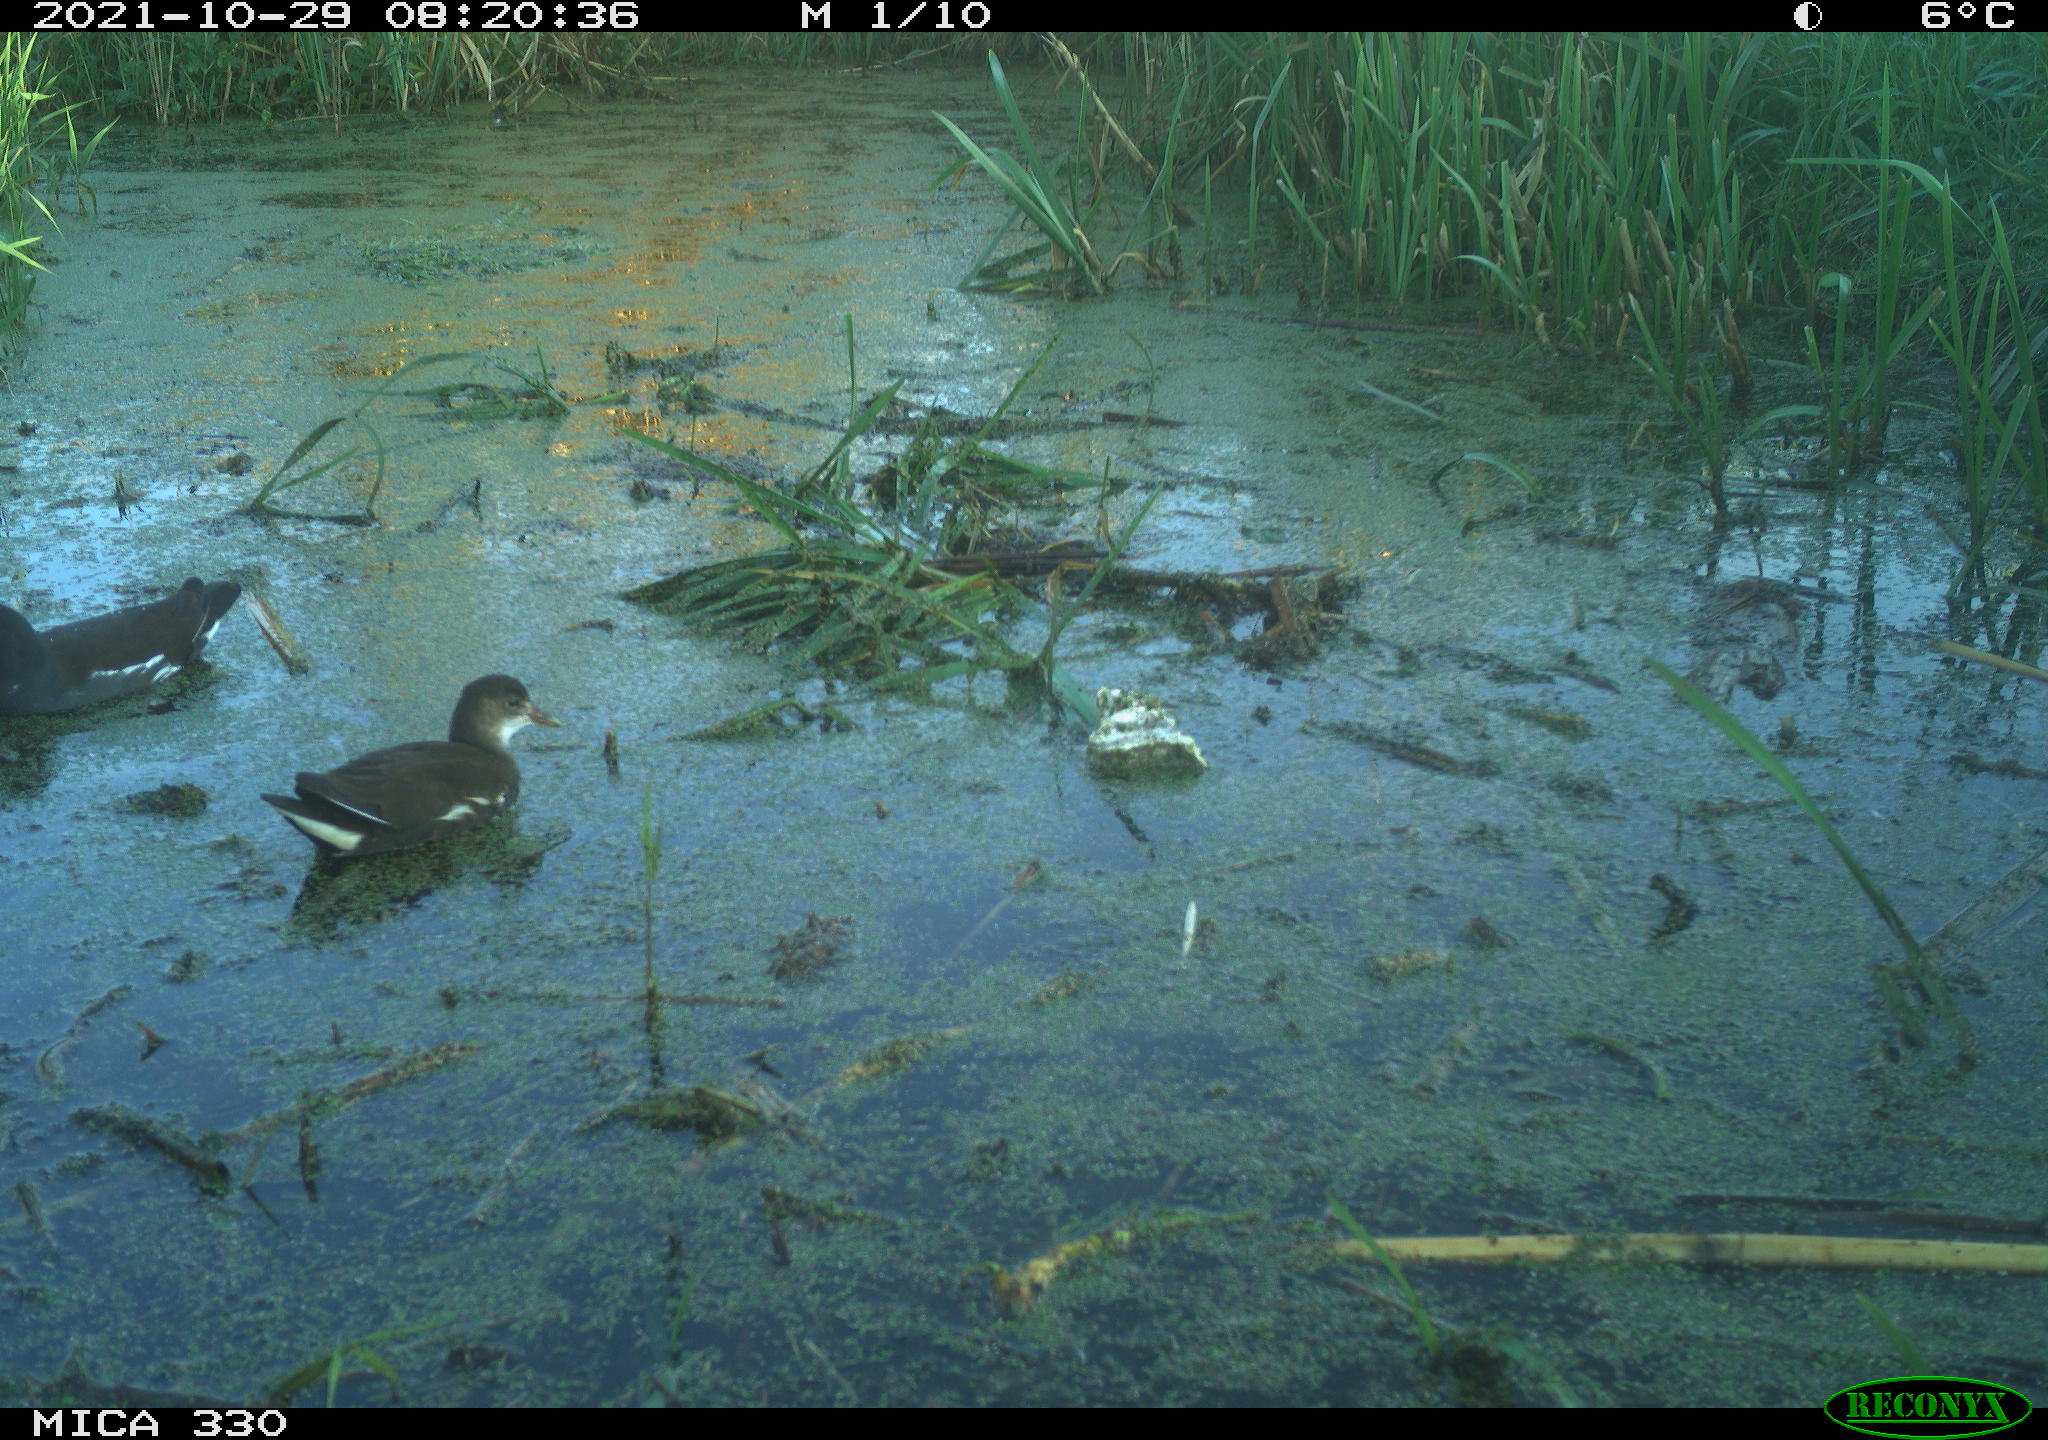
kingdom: Animalia
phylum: Chordata
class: Aves
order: Gruiformes
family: Rallidae
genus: Gallinula
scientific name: Gallinula chloropus
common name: Common moorhen
